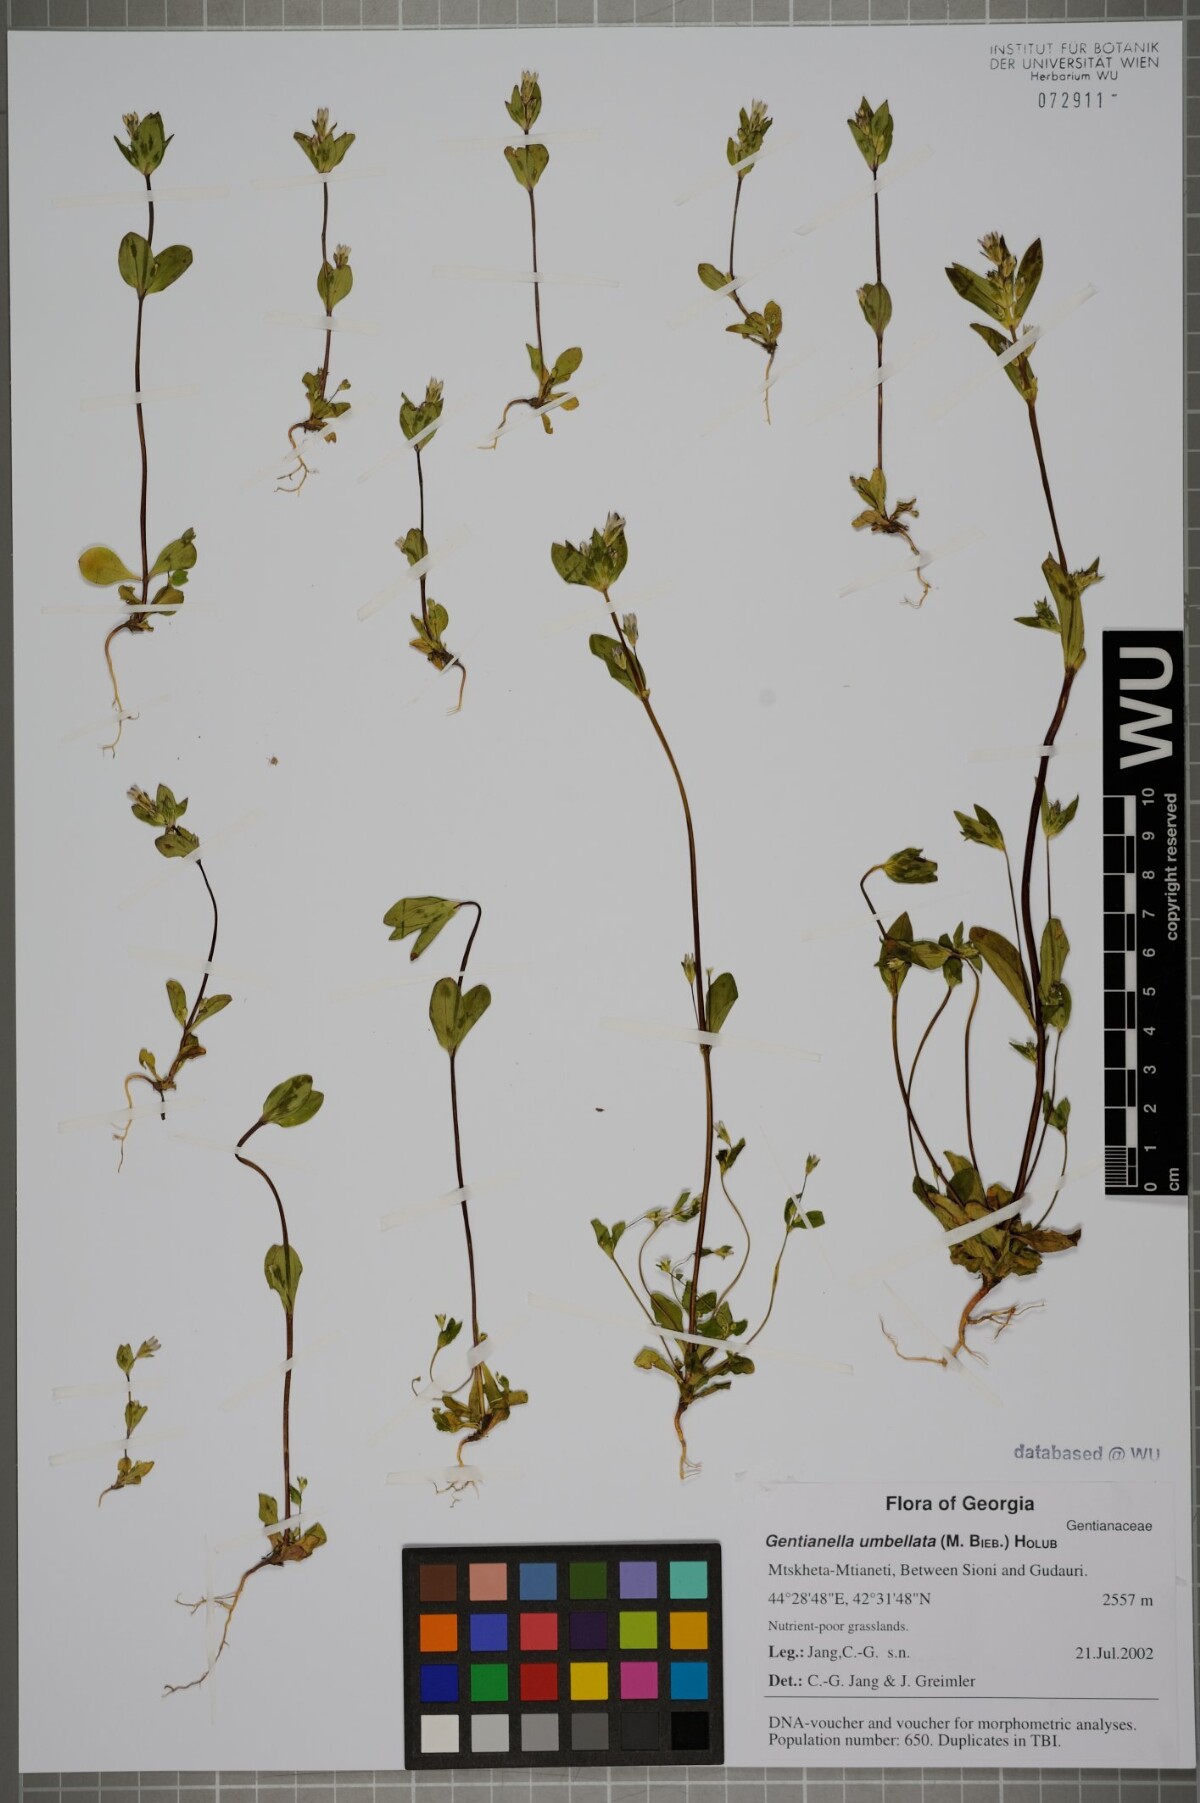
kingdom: Plantae
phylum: Tracheophyta
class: Magnoliopsida
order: Gentianales
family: Gentianaceae
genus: Gentianella
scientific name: Gentianella umbellata
